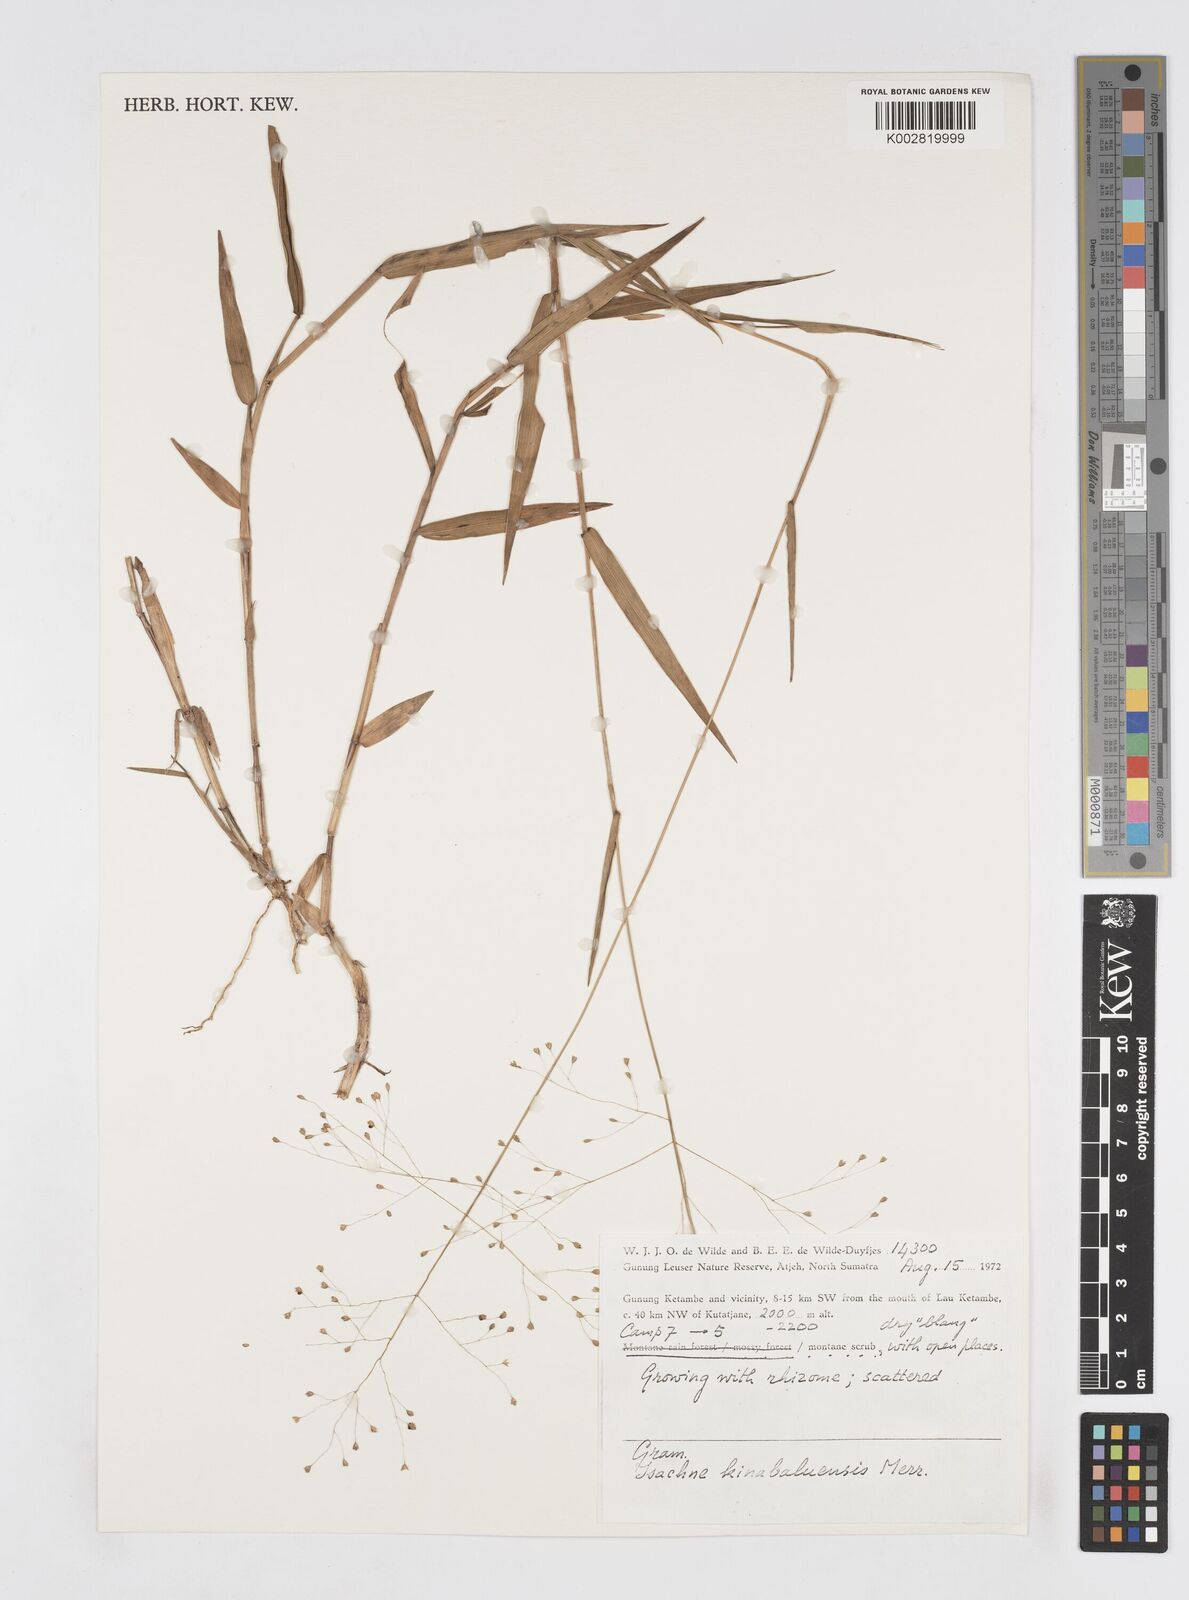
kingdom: Plantae
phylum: Tracheophyta
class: Liliopsida
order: Poales
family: Poaceae
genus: Isachne
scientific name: Isachne kinabaluensis
